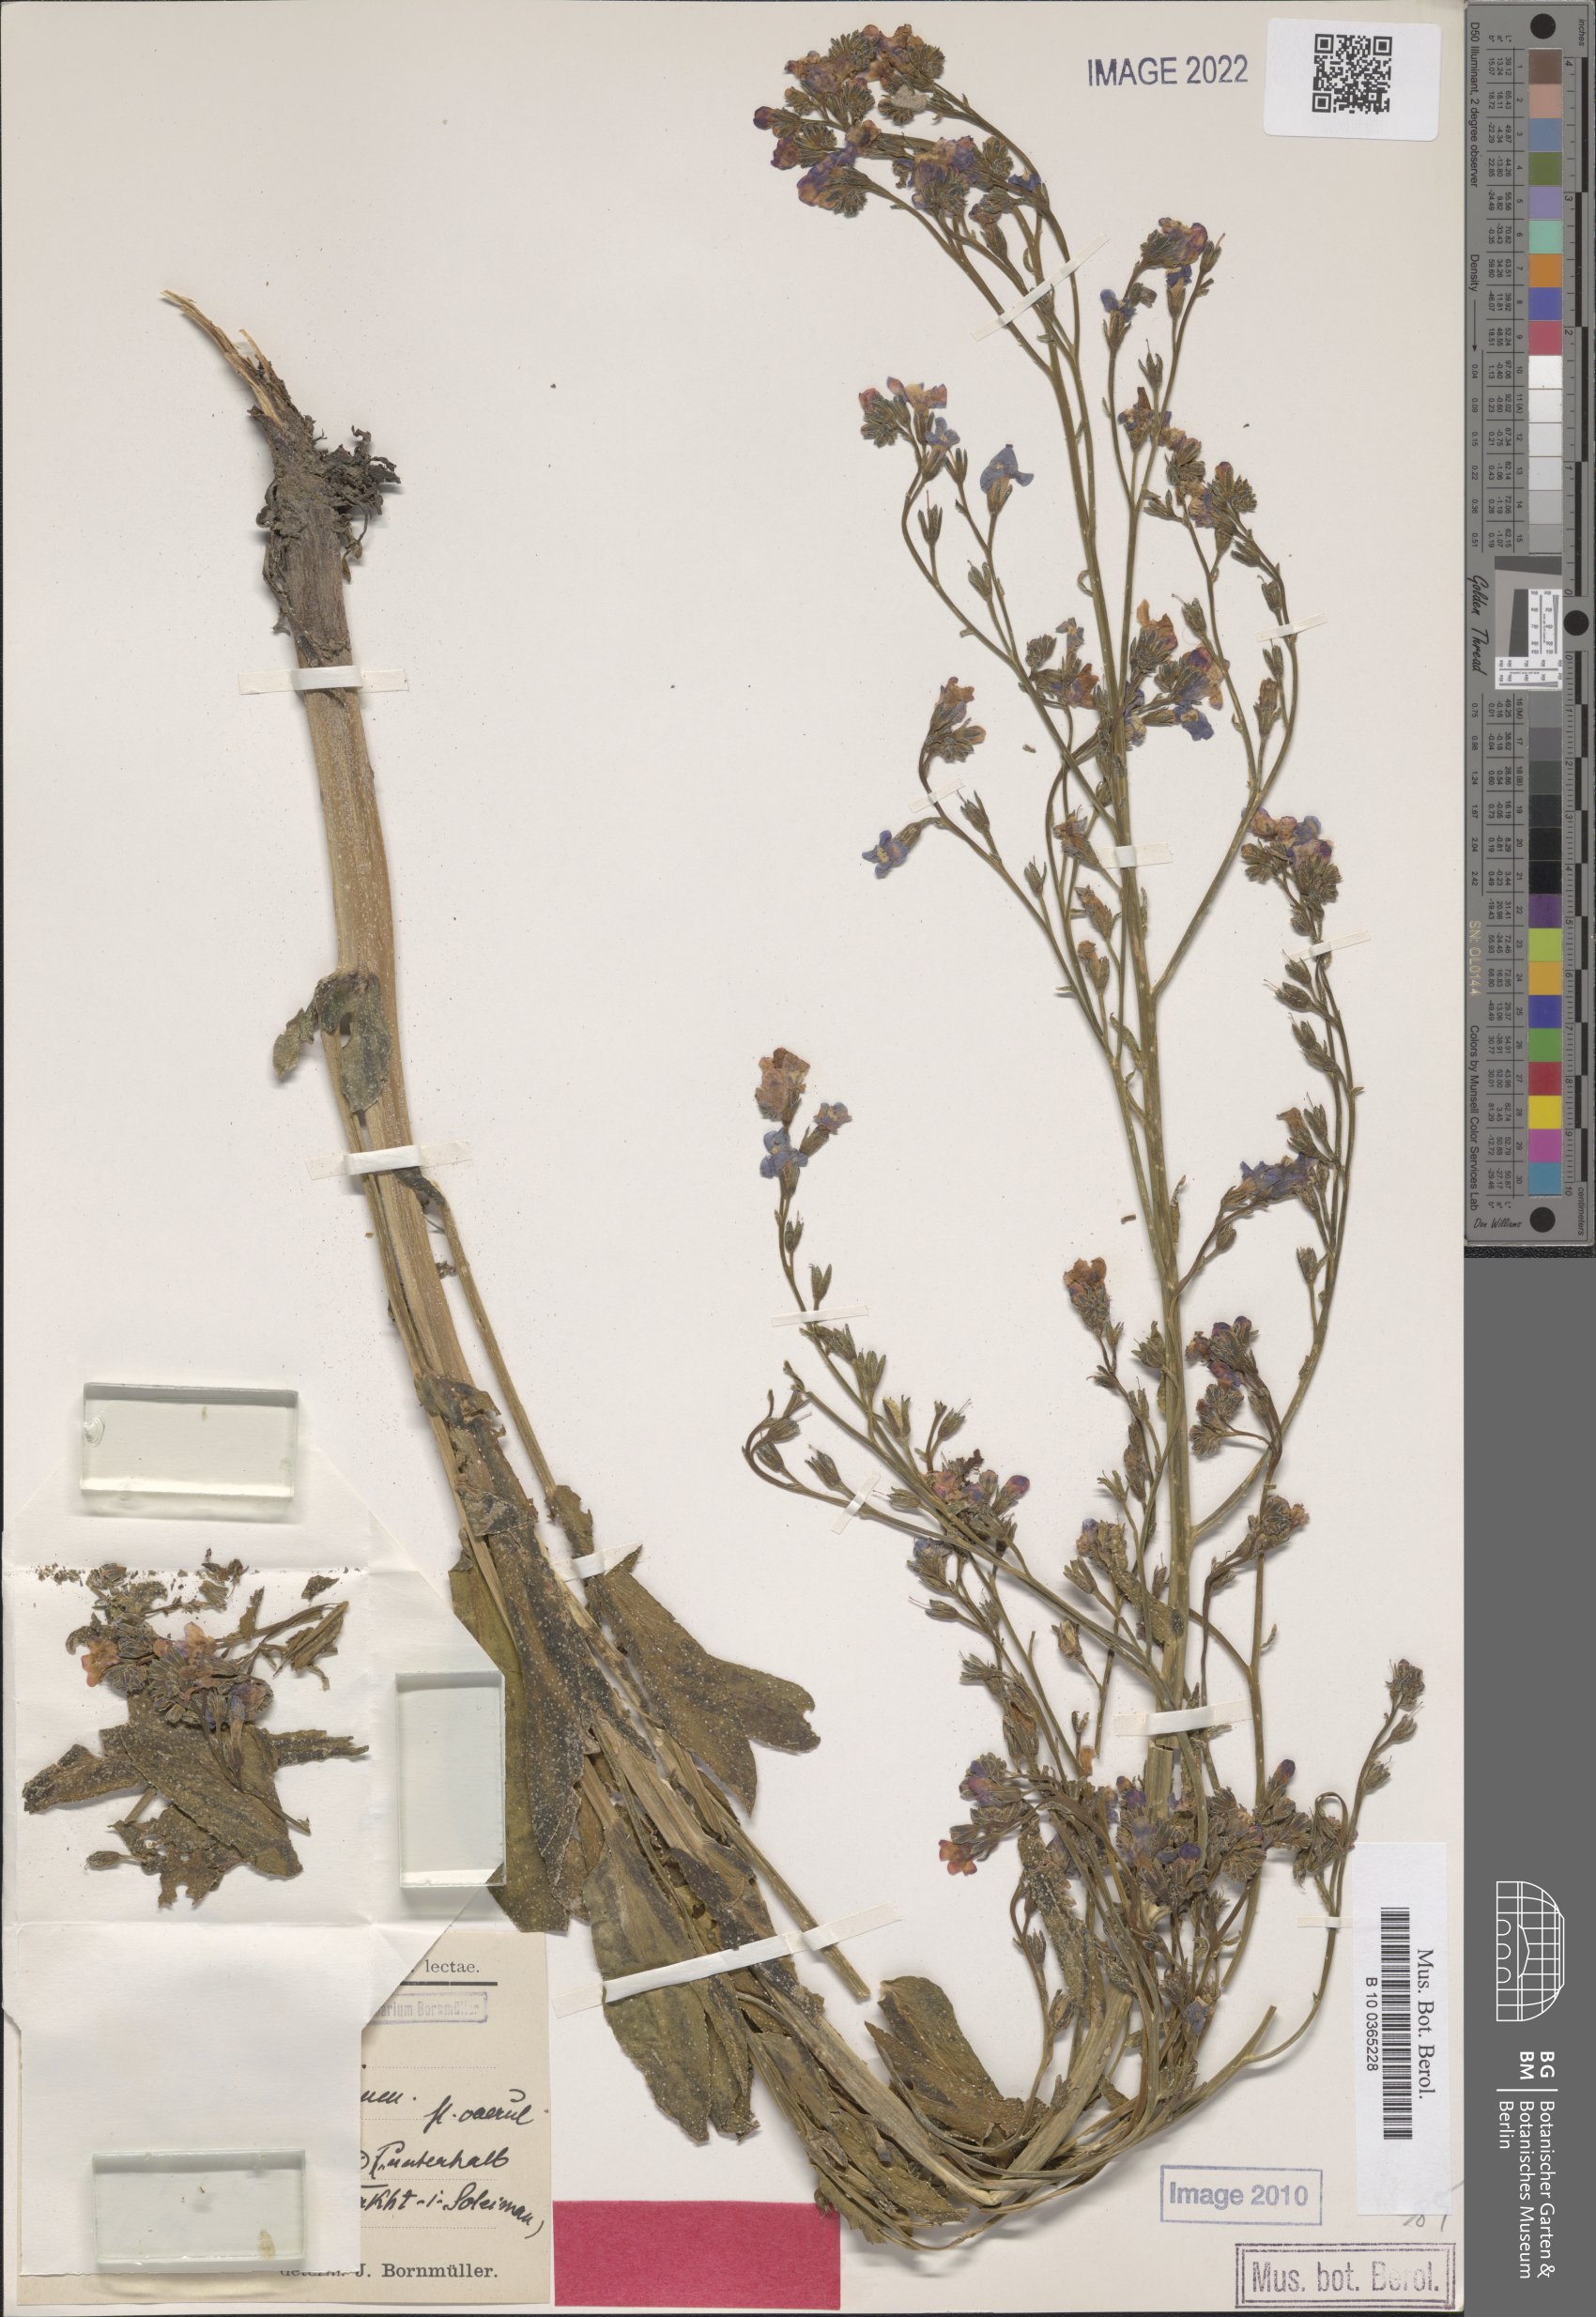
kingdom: Plantae
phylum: Tracheophyta
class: Magnoliopsida
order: Boraginales
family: Boraginaceae
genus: Anchusa
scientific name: Anchusa strigosa
